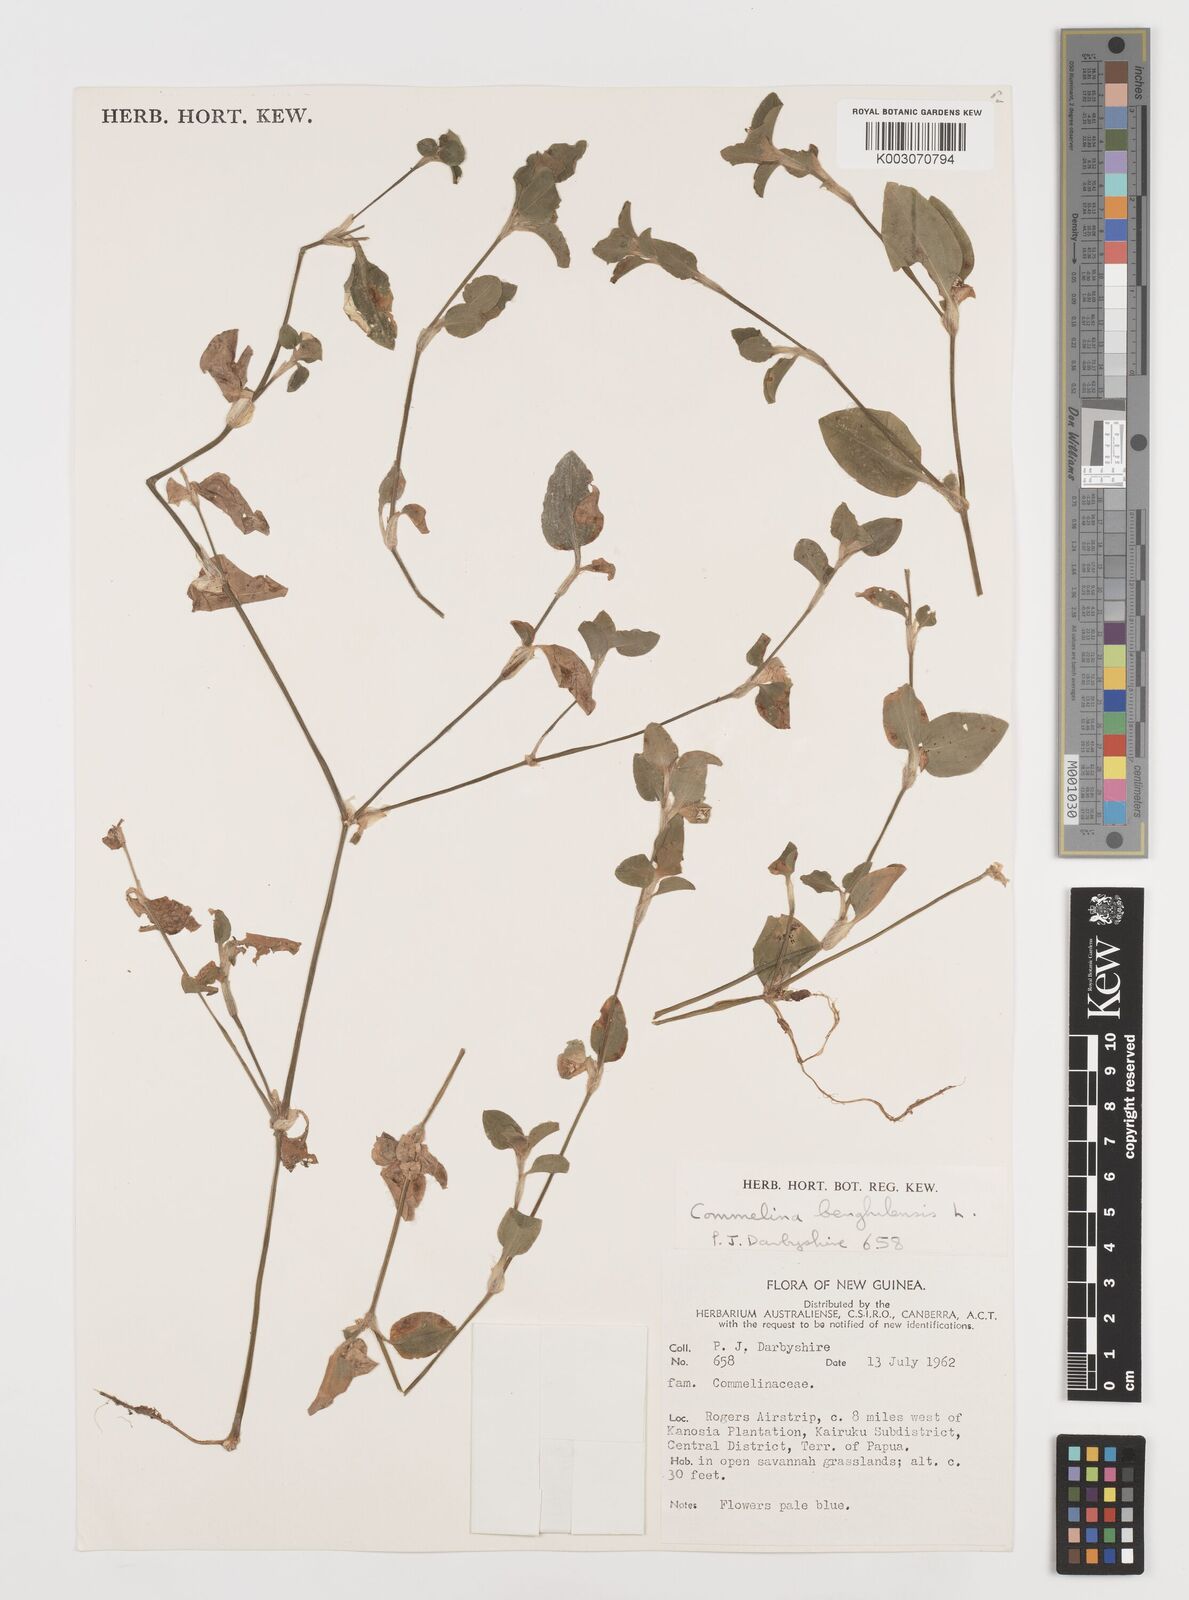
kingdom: Plantae
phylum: Tracheophyta
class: Liliopsida
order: Commelinales
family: Commelinaceae
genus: Commelina
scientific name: Commelina benghalensis
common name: Jio
